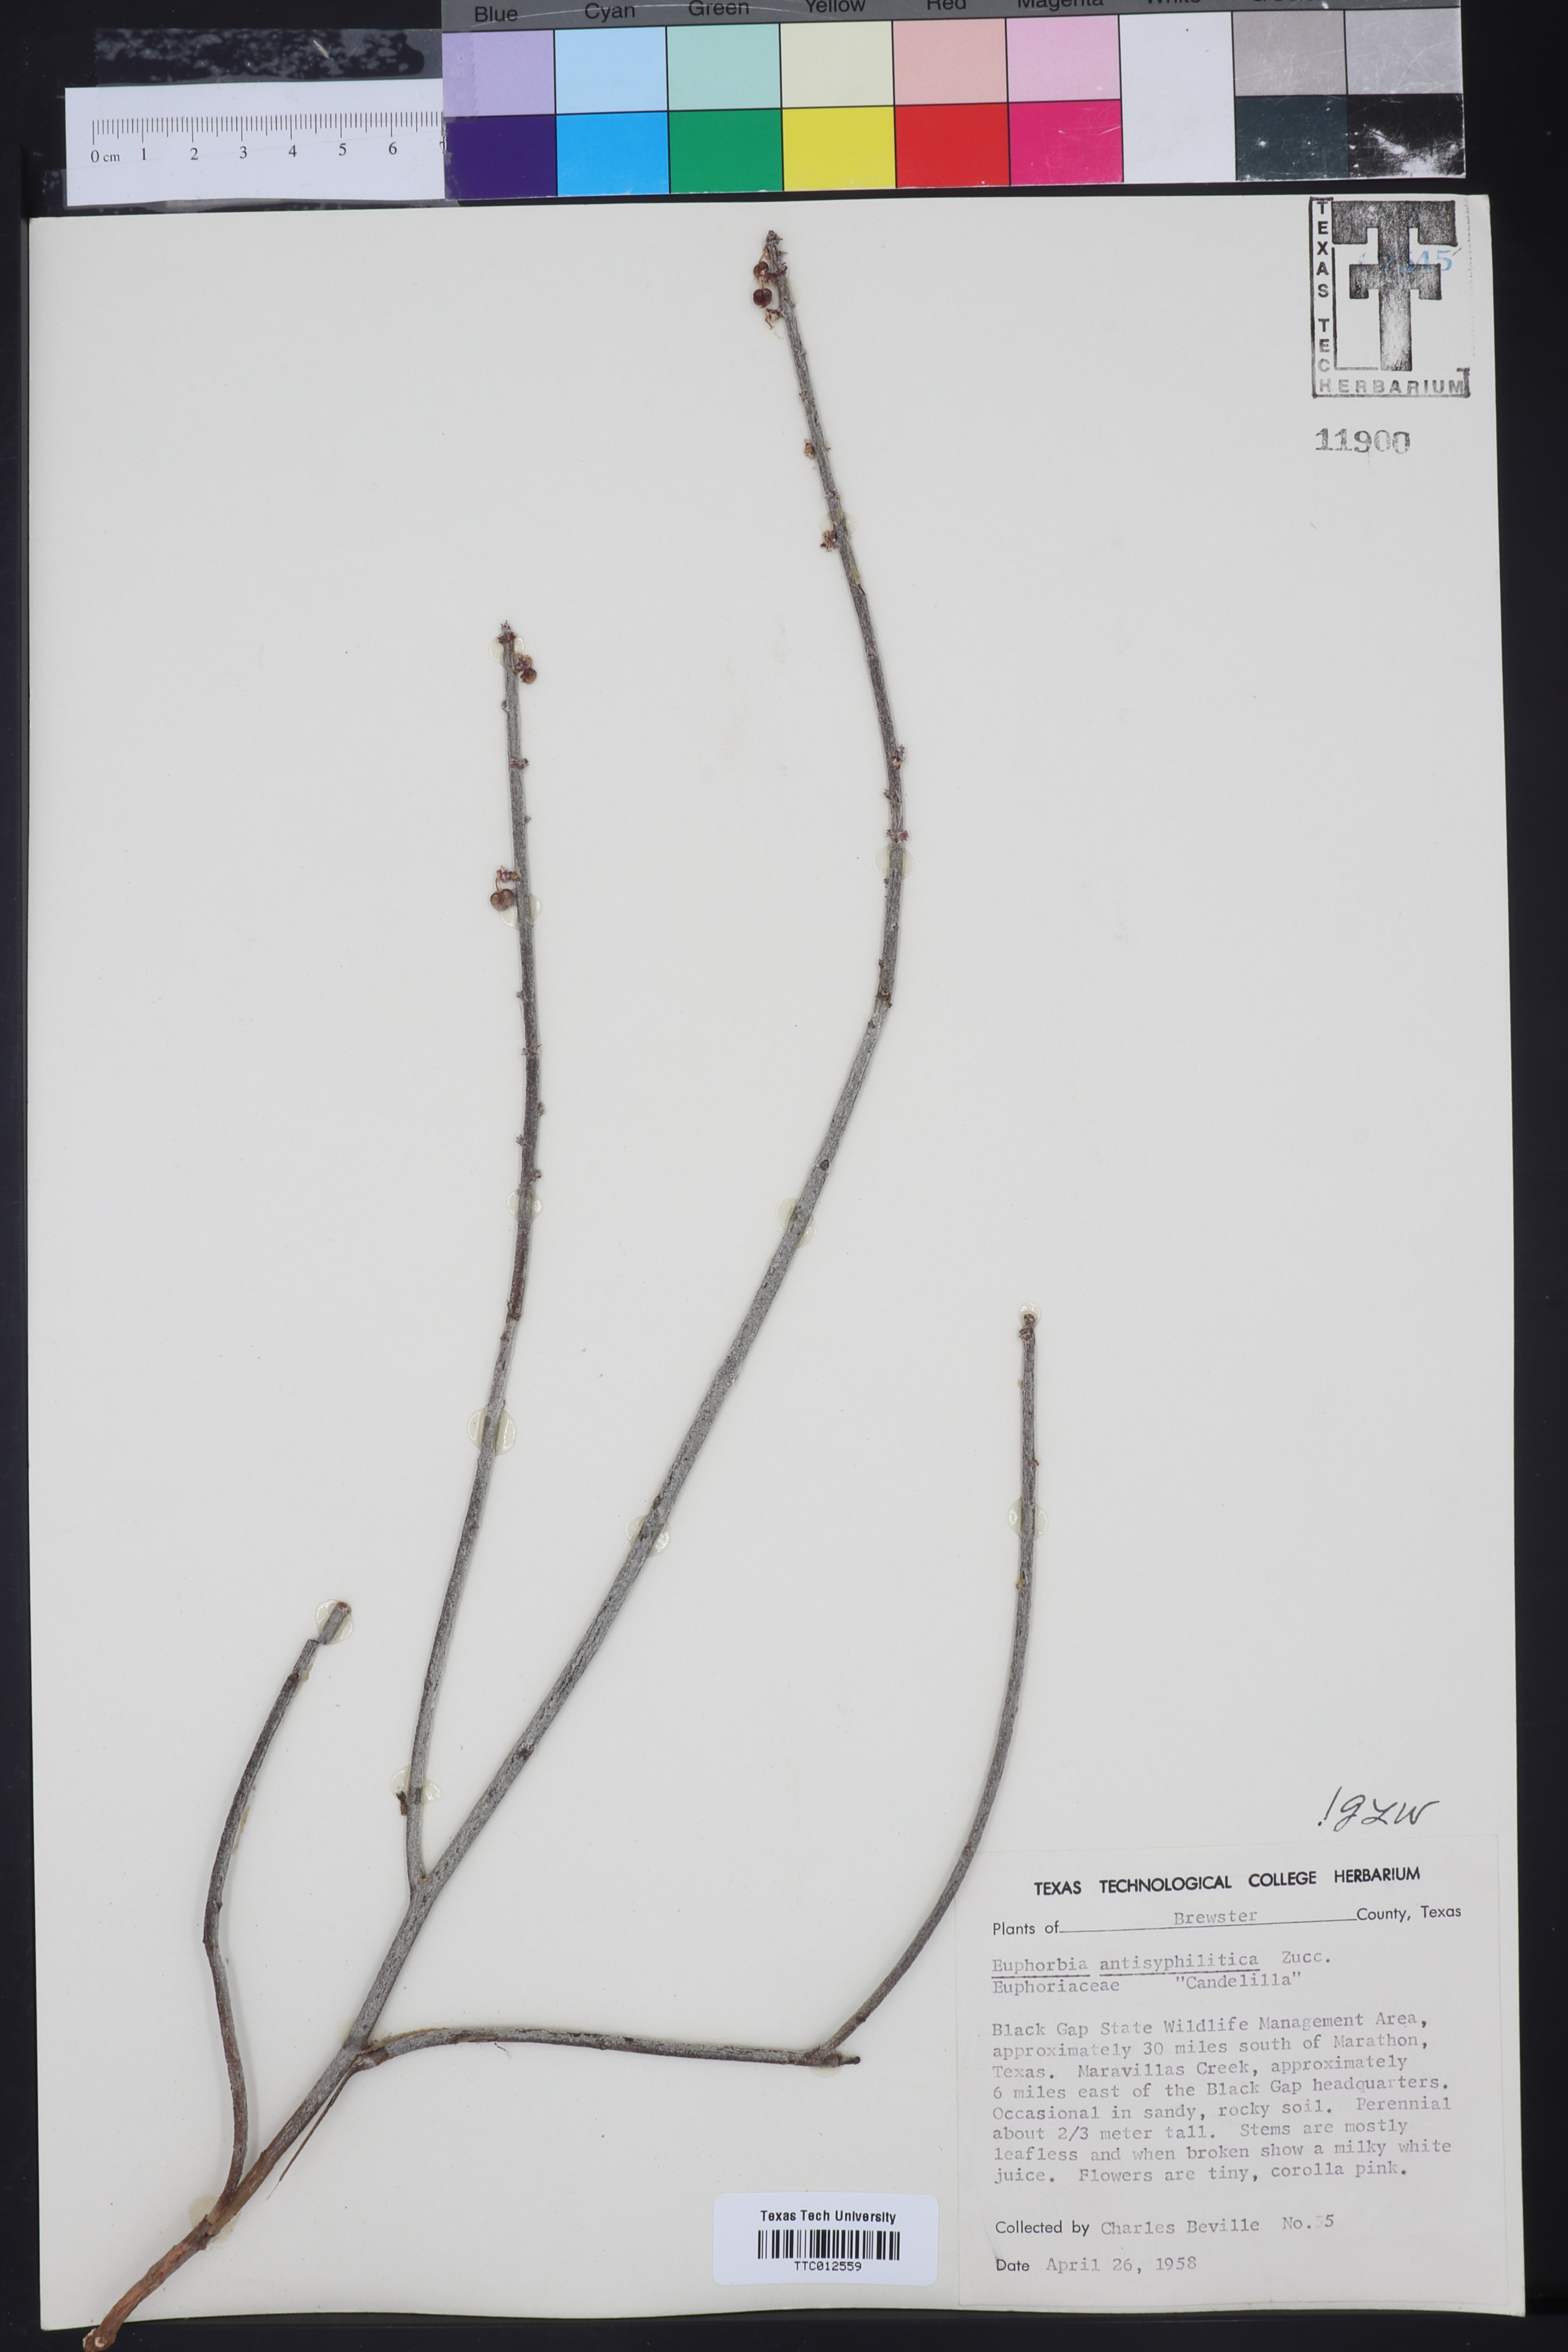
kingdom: Plantae
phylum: Tracheophyta
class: Magnoliopsida
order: Malpighiales
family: Euphorbiaceae
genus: Euphorbia
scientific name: Euphorbia antisyphilitica
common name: Candelilla
